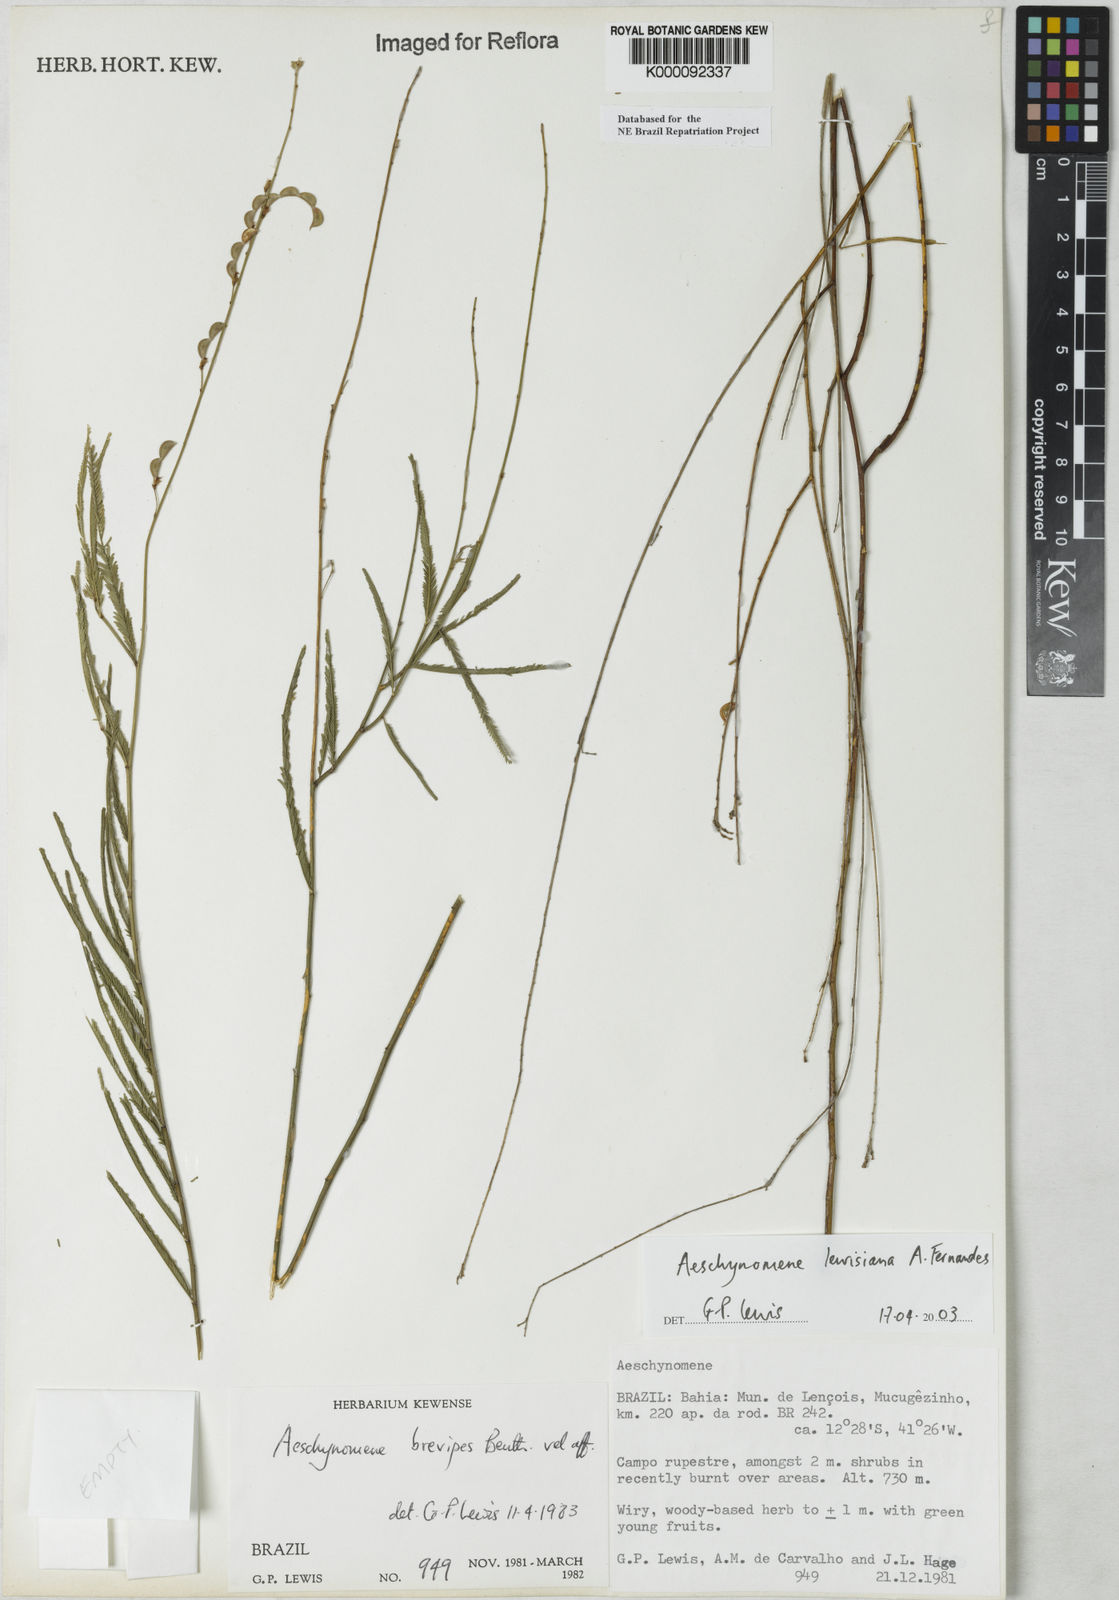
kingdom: Plantae
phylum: Tracheophyta
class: Magnoliopsida
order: Fabales
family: Fabaceae
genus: Ctenodon
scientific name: Ctenodon lewisianus
